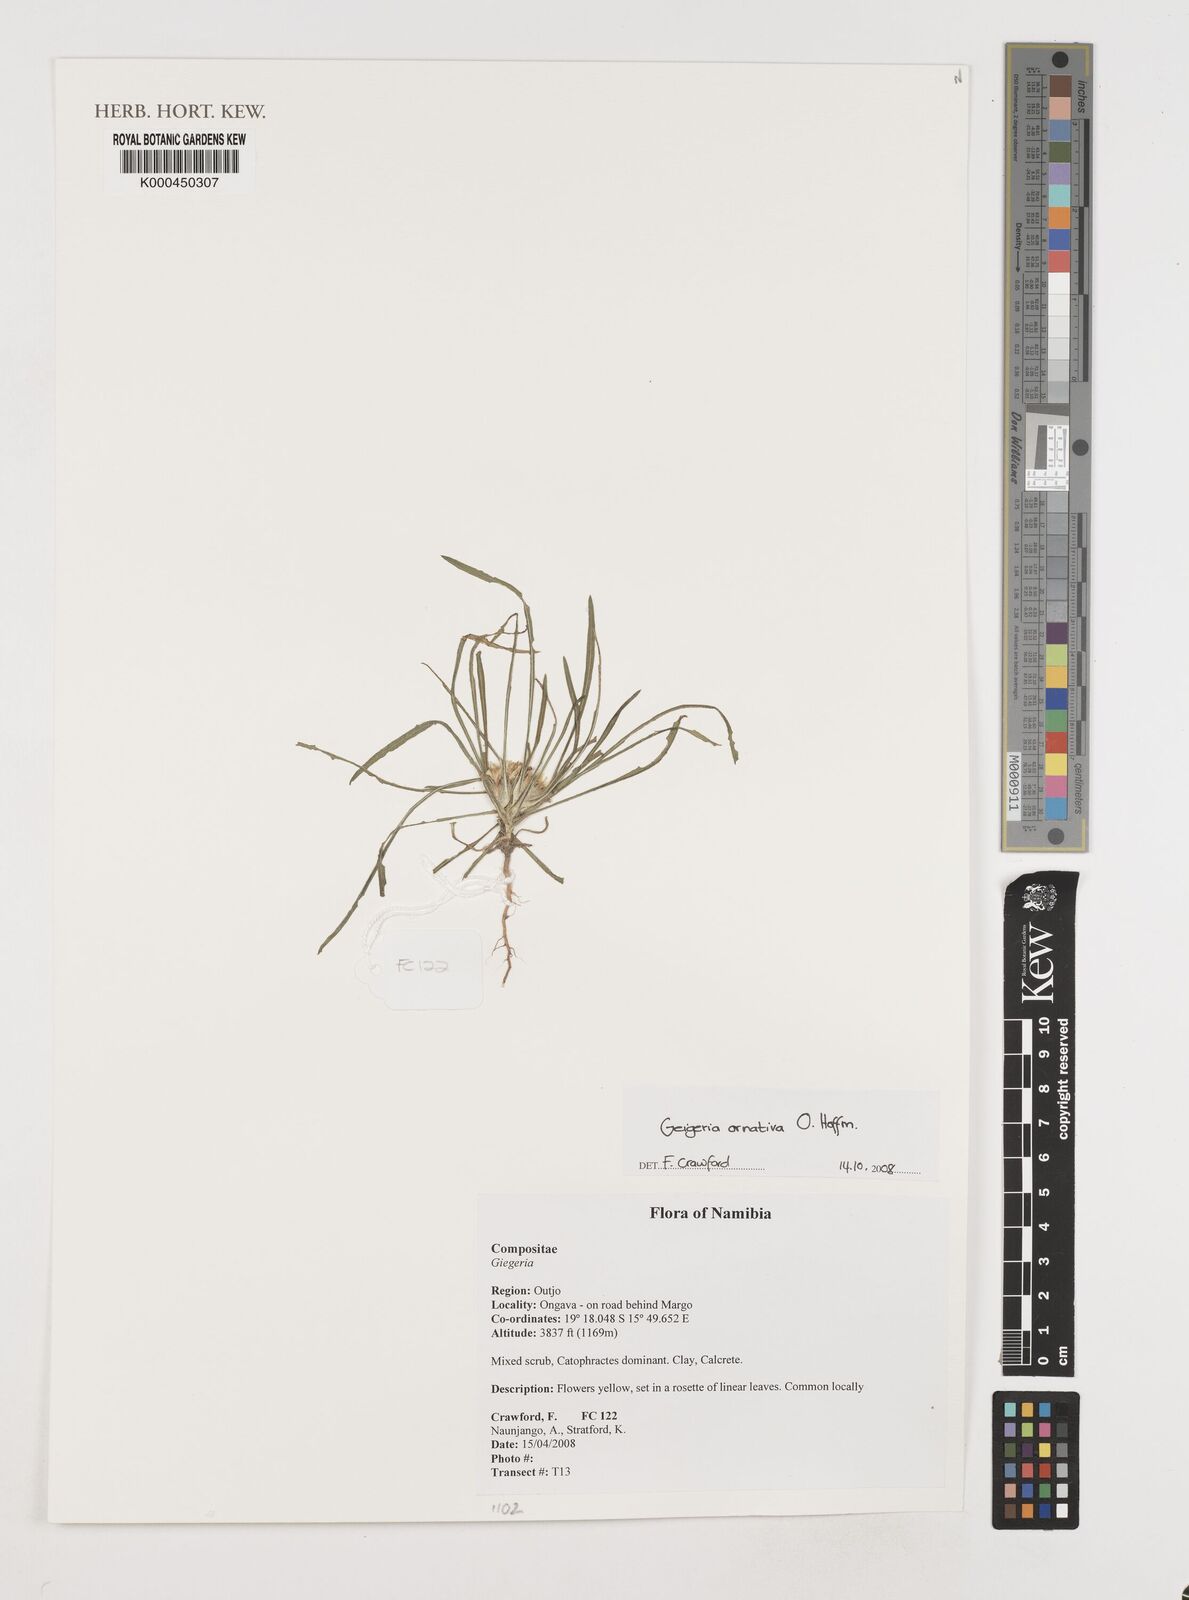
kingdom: Plantae
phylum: Tracheophyta
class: Magnoliopsida
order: Asterales
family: Asteraceae
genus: Geigeria
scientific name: Geigeria ornativa
